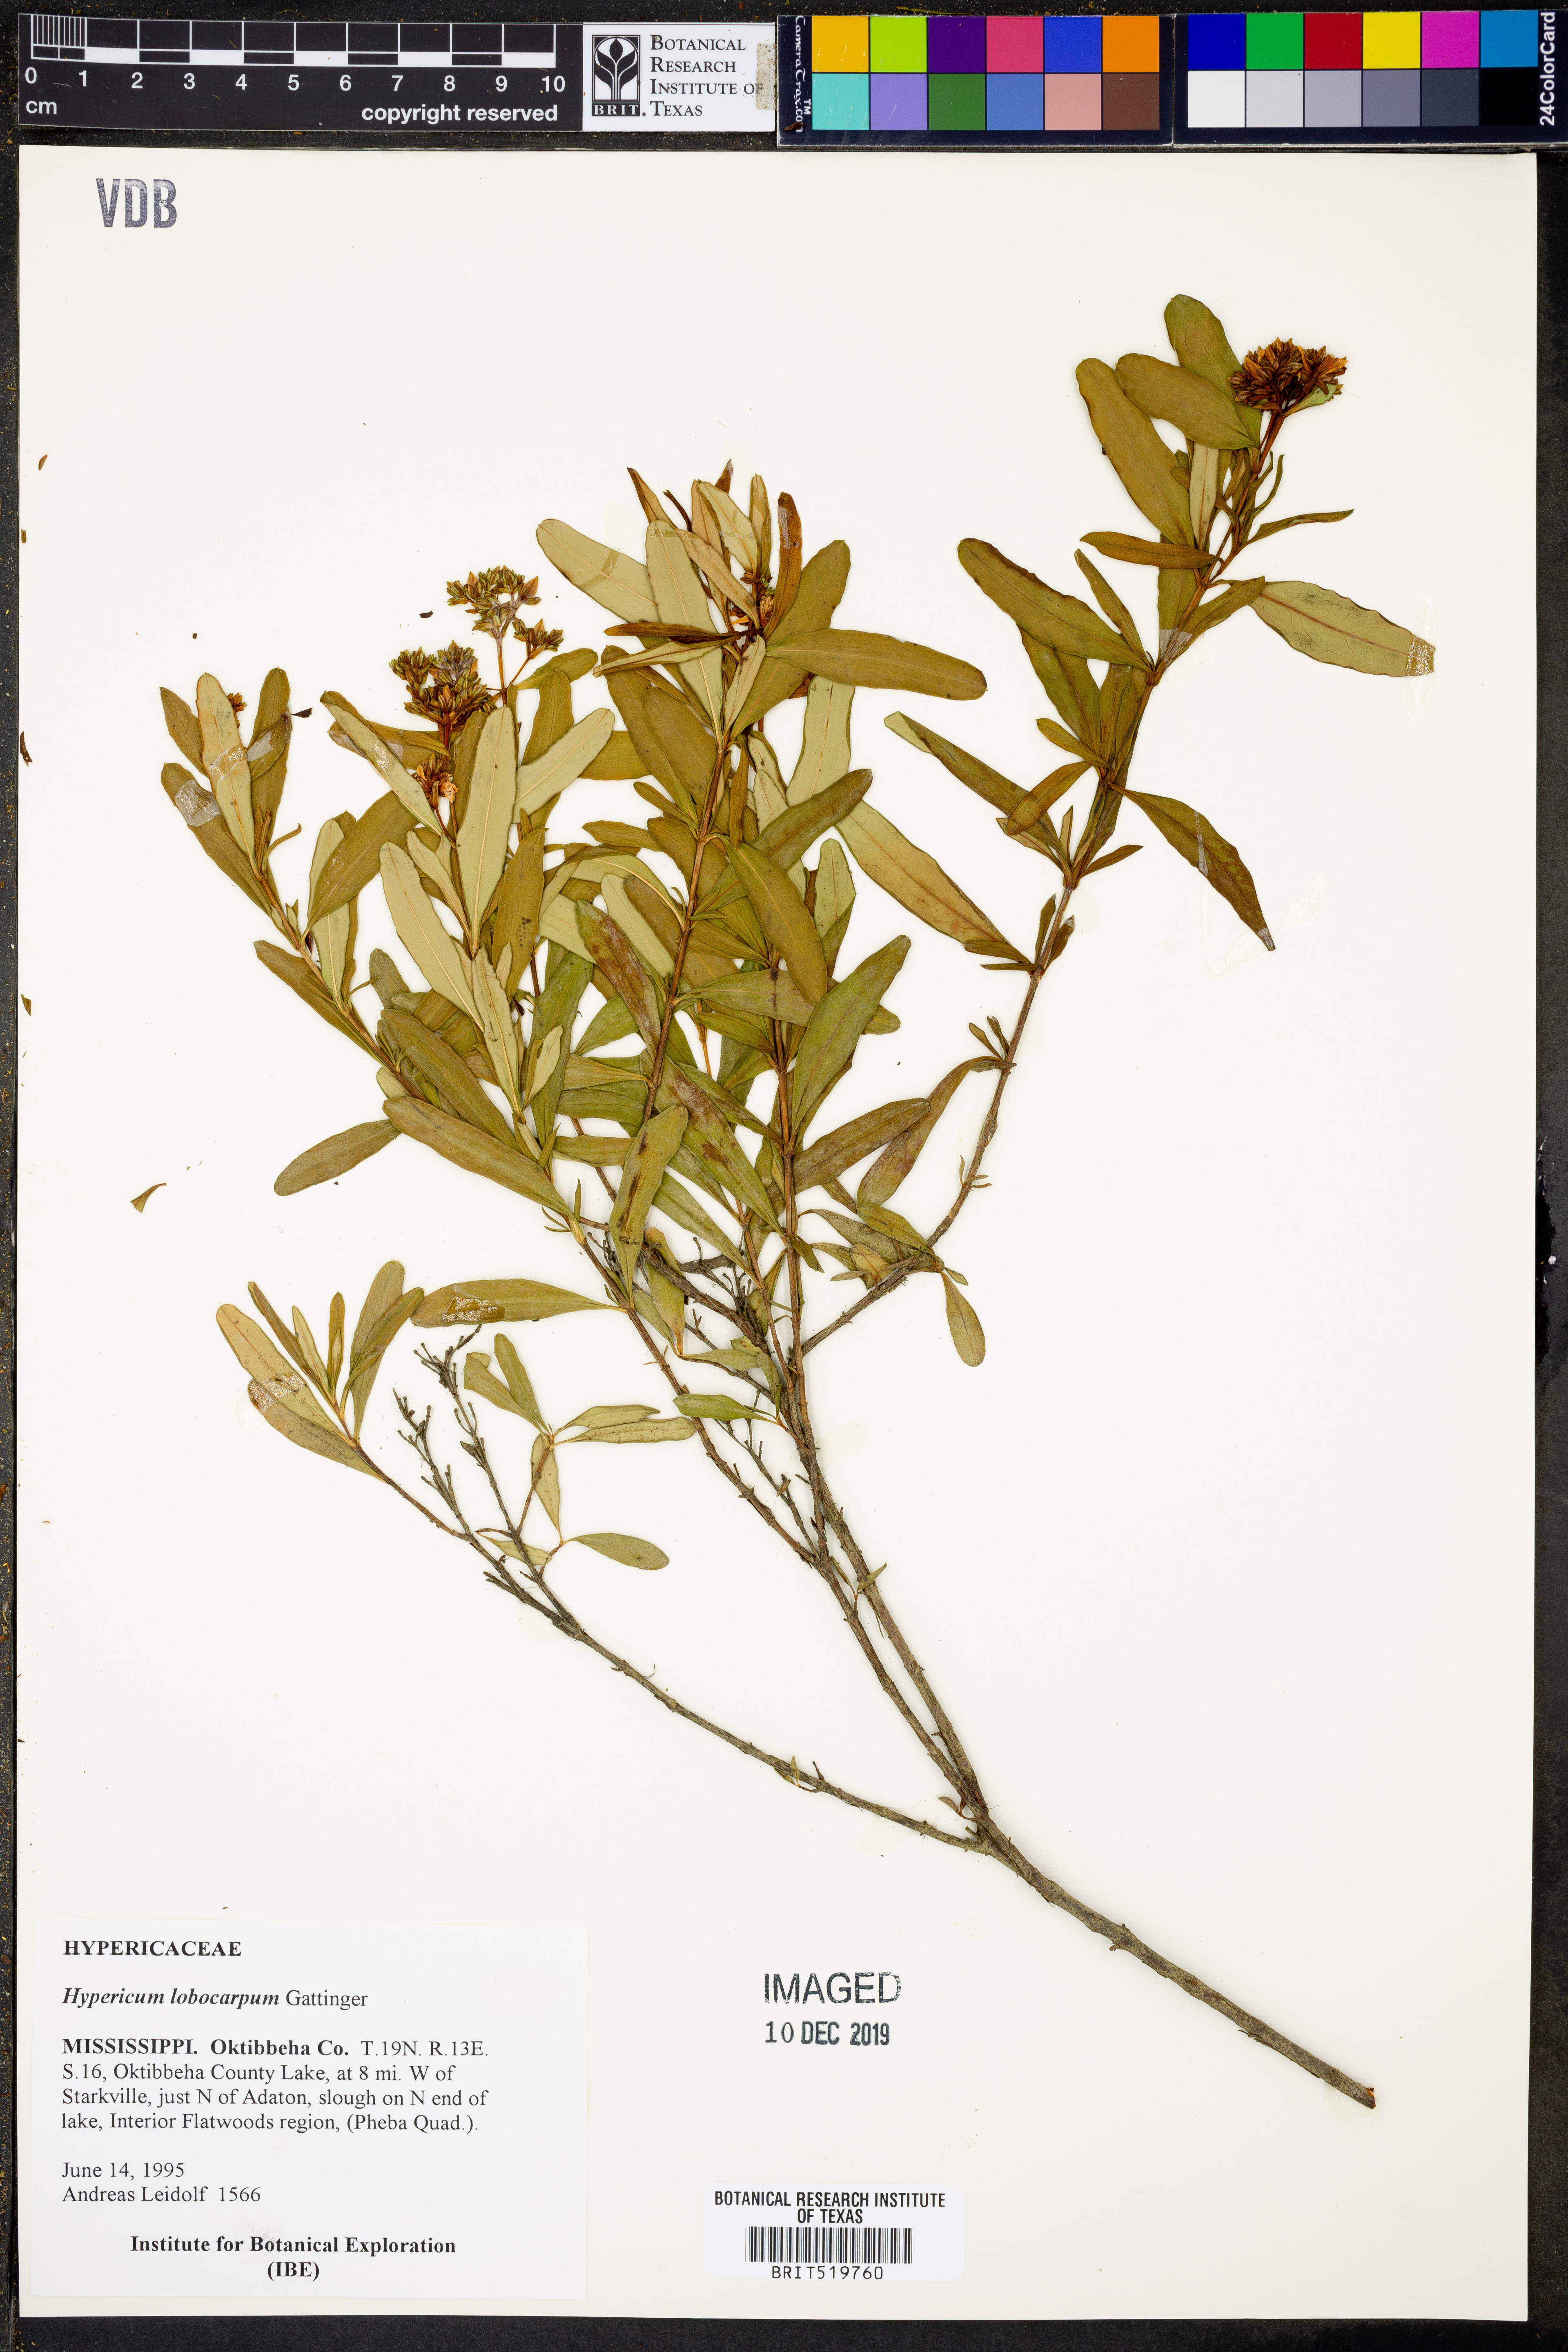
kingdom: Plantae
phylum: Tracheophyta
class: Magnoliopsida
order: Malpighiales
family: Hypericaceae
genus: Hypericum
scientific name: Hypericum lobocarpum
